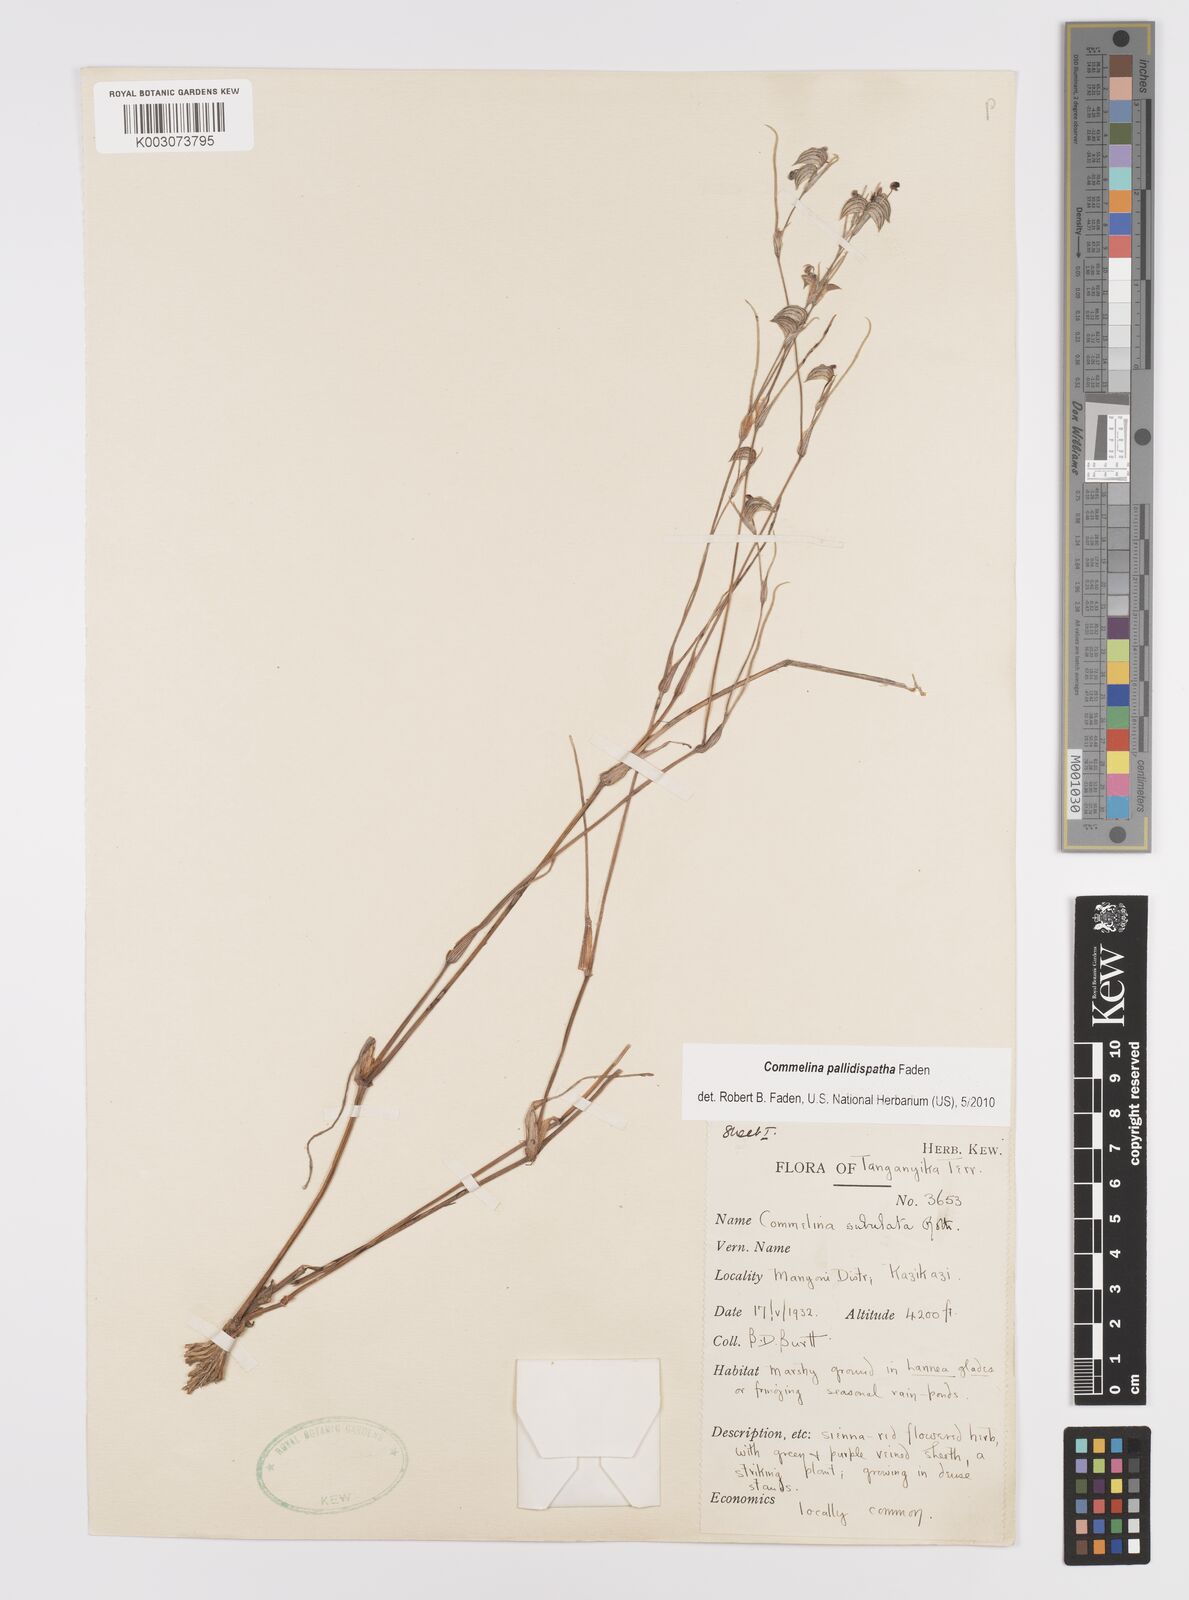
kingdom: Plantae
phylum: Tracheophyta
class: Liliopsida
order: Commelinales
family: Commelinaceae
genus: Commelina
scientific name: Commelina pallidispatha
